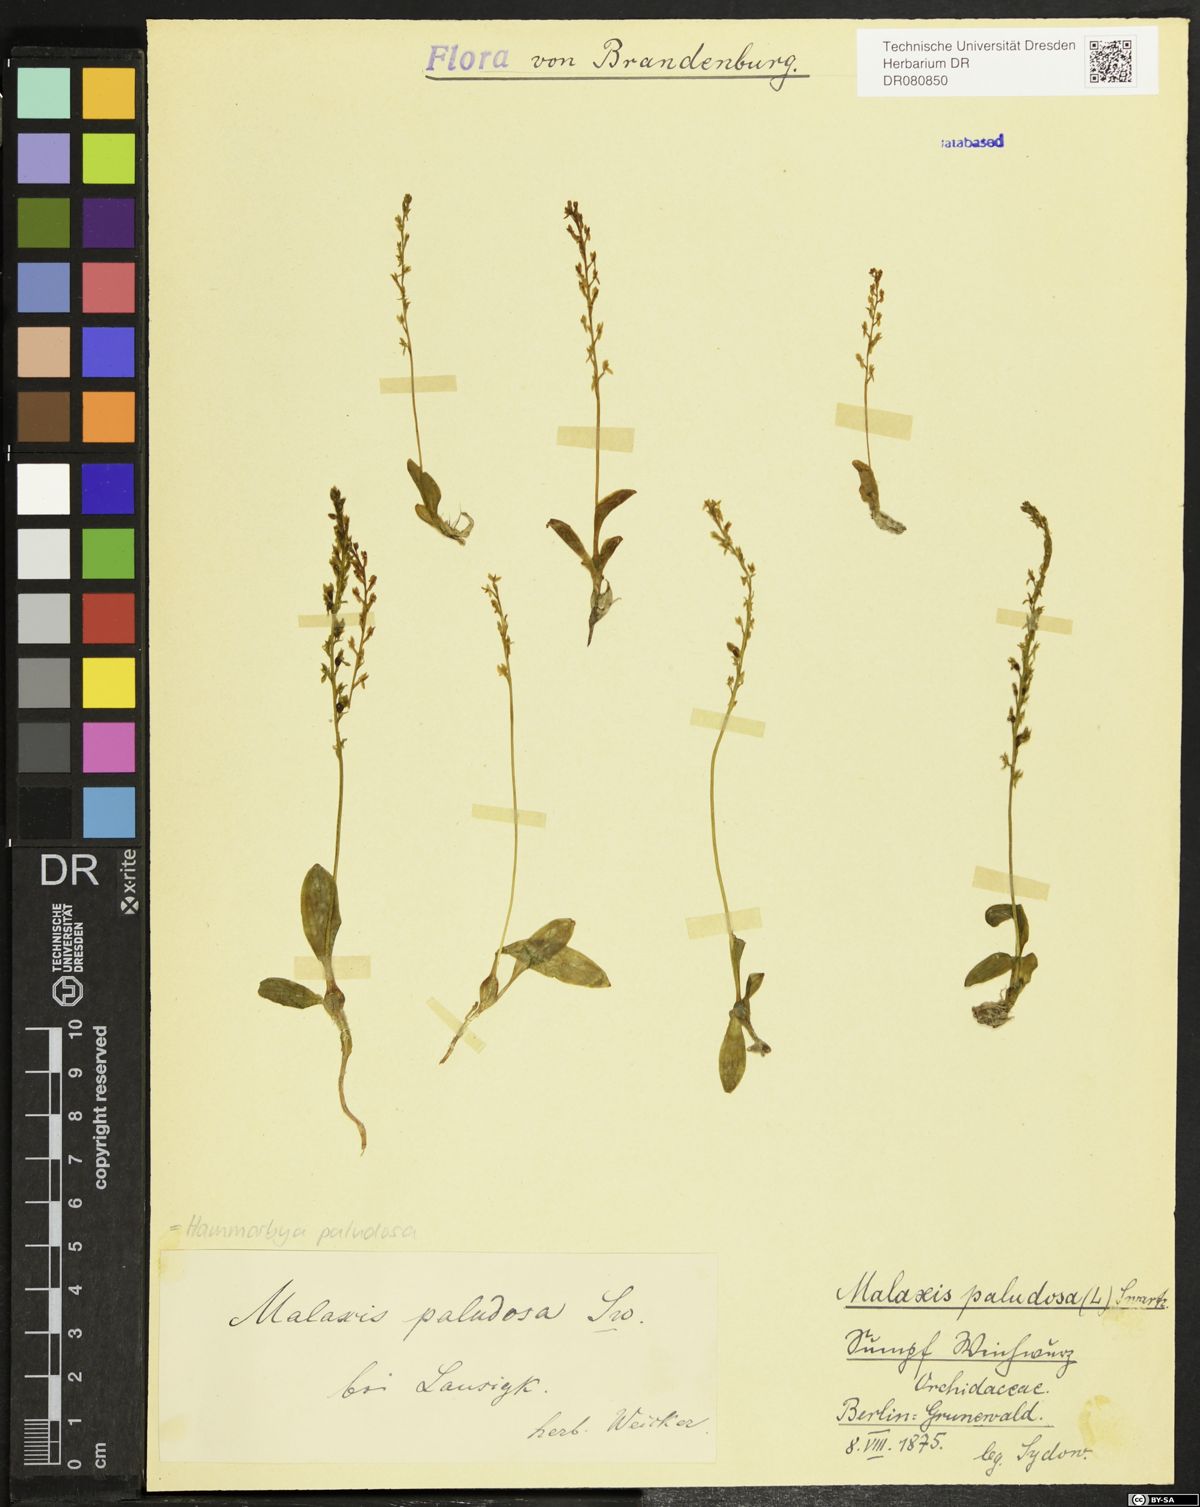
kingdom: Plantae
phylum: Tracheophyta
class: Liliopsida
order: Asparagales
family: Orchidaceae
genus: Hammarbya
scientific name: Hammarbya paludosa
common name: Bog orchid
